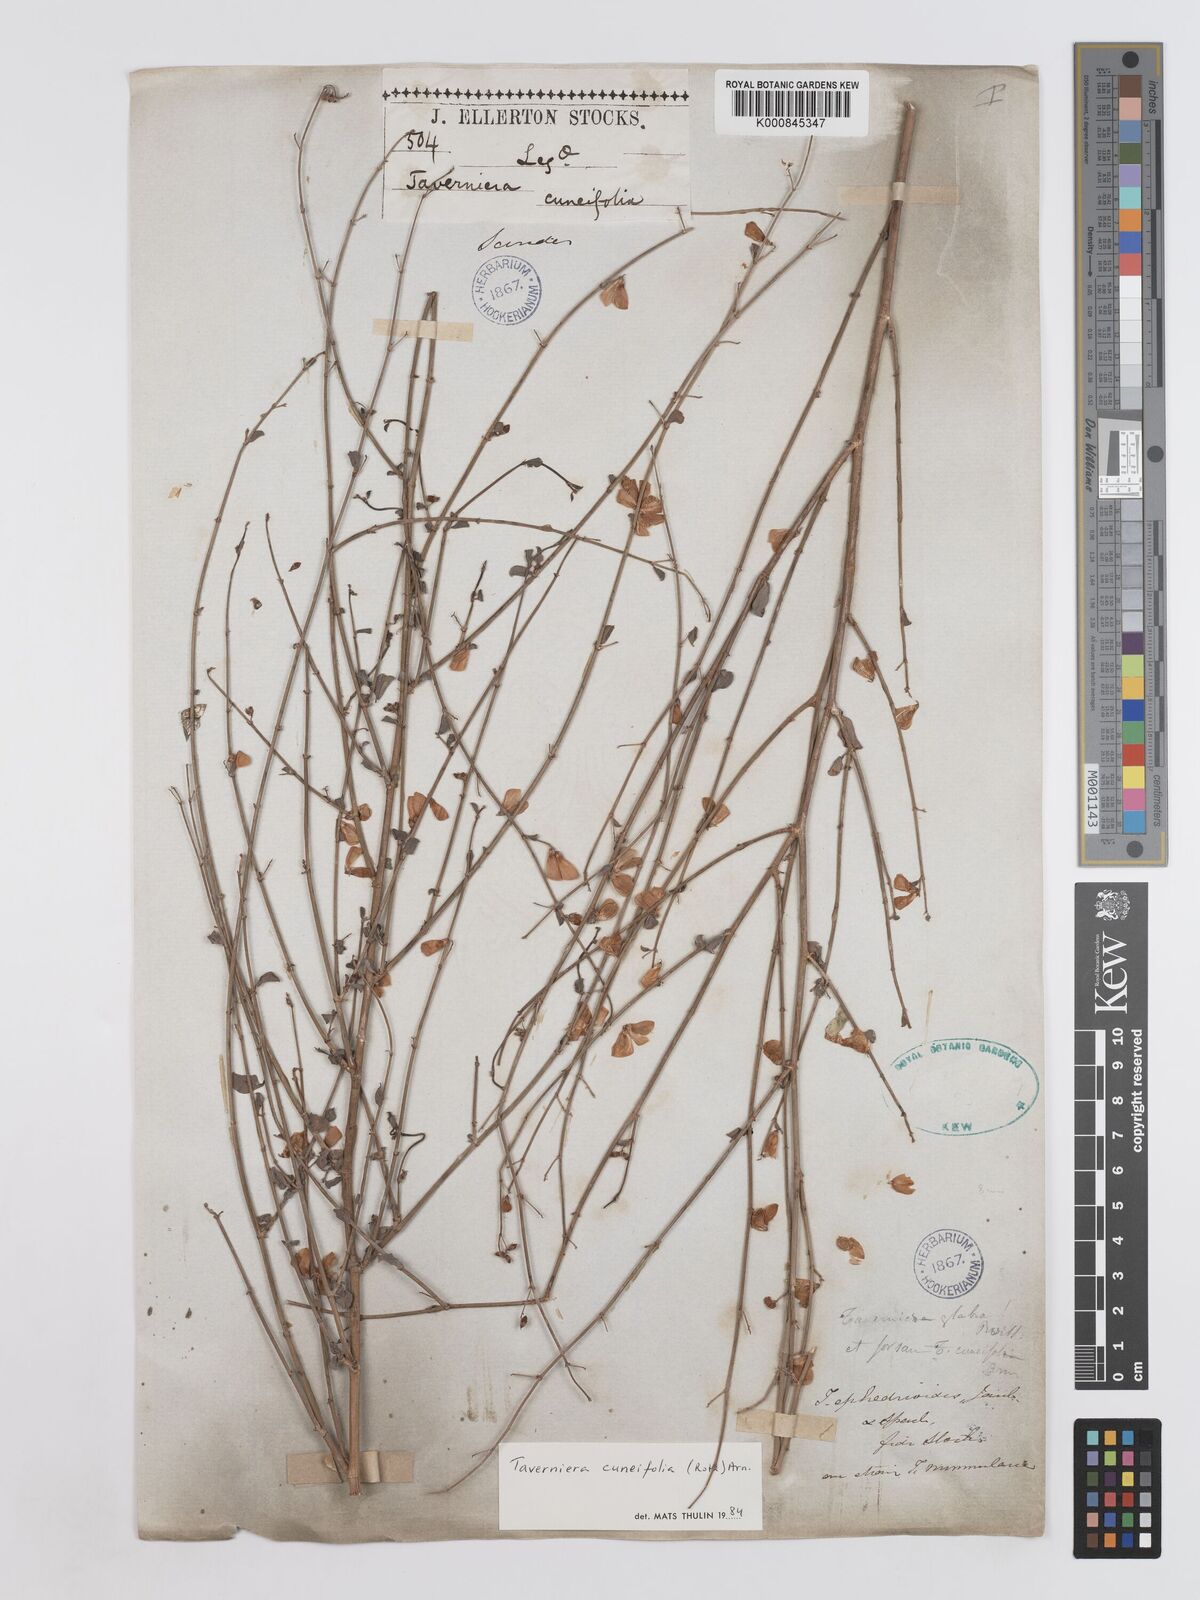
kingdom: Plantae
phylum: Tracheophyta
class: Magnoliopsida
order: Fabales
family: Fabaceae
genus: Taverniera
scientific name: Taverniera cuneifolia
